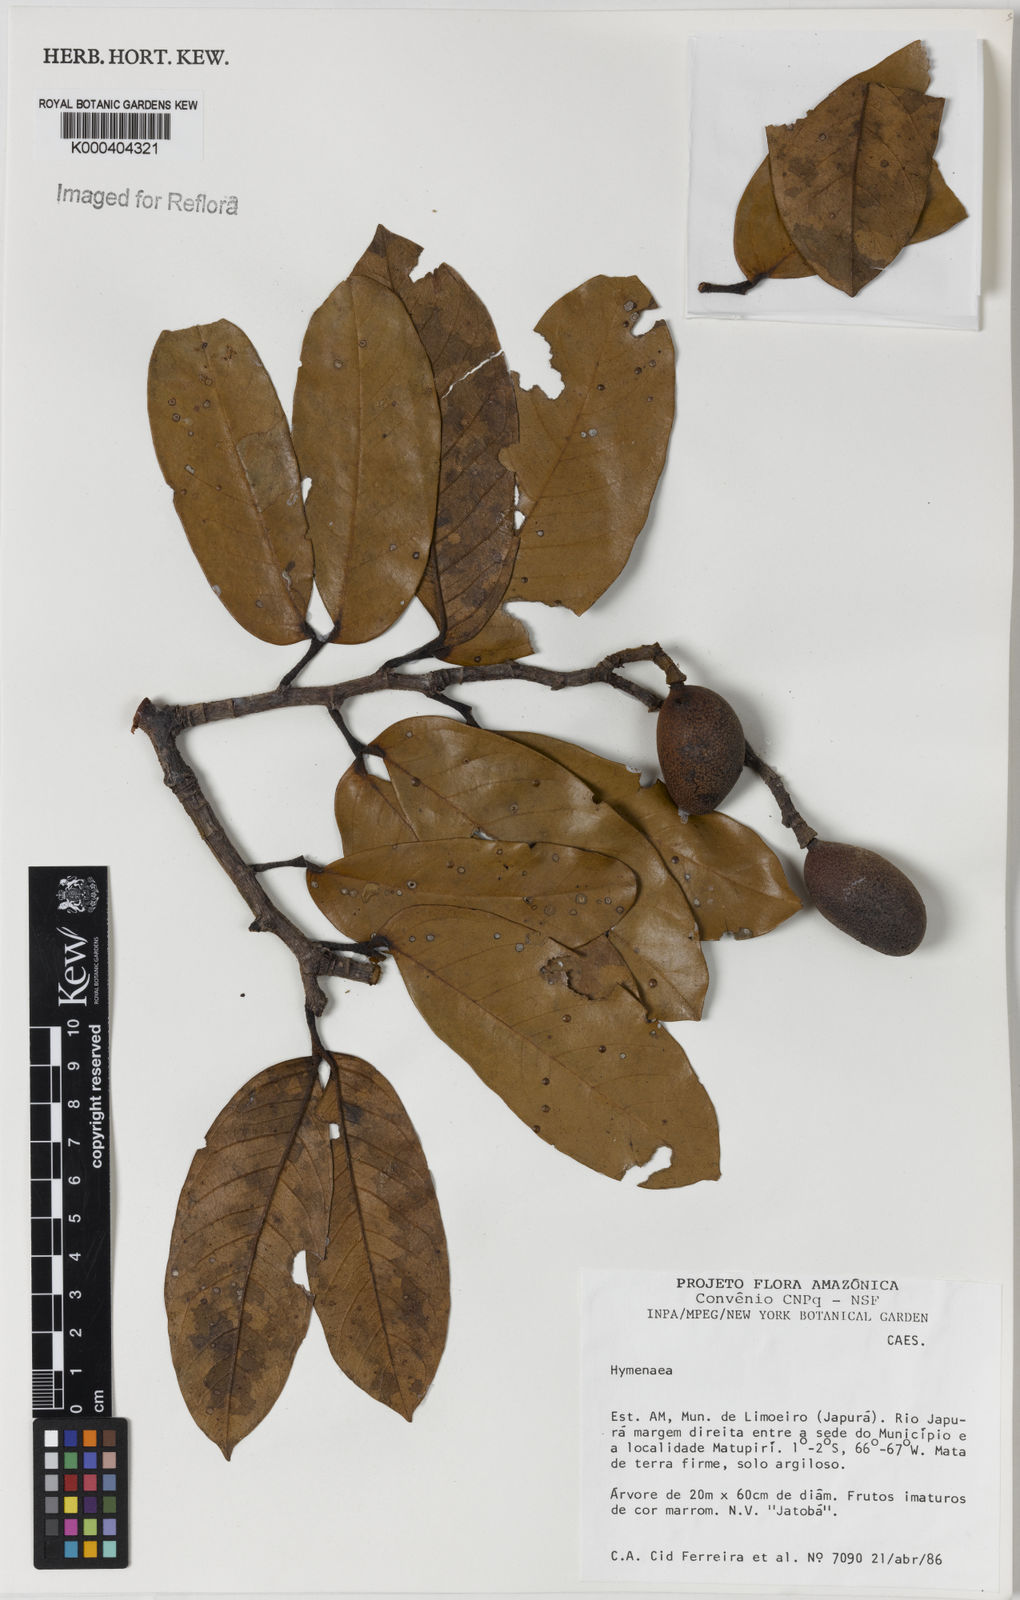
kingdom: Plantae
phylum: Tracheophyta
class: Magnoliopsida
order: Fabales
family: Fabaceae
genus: Hymenaea
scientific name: Hymenaea
